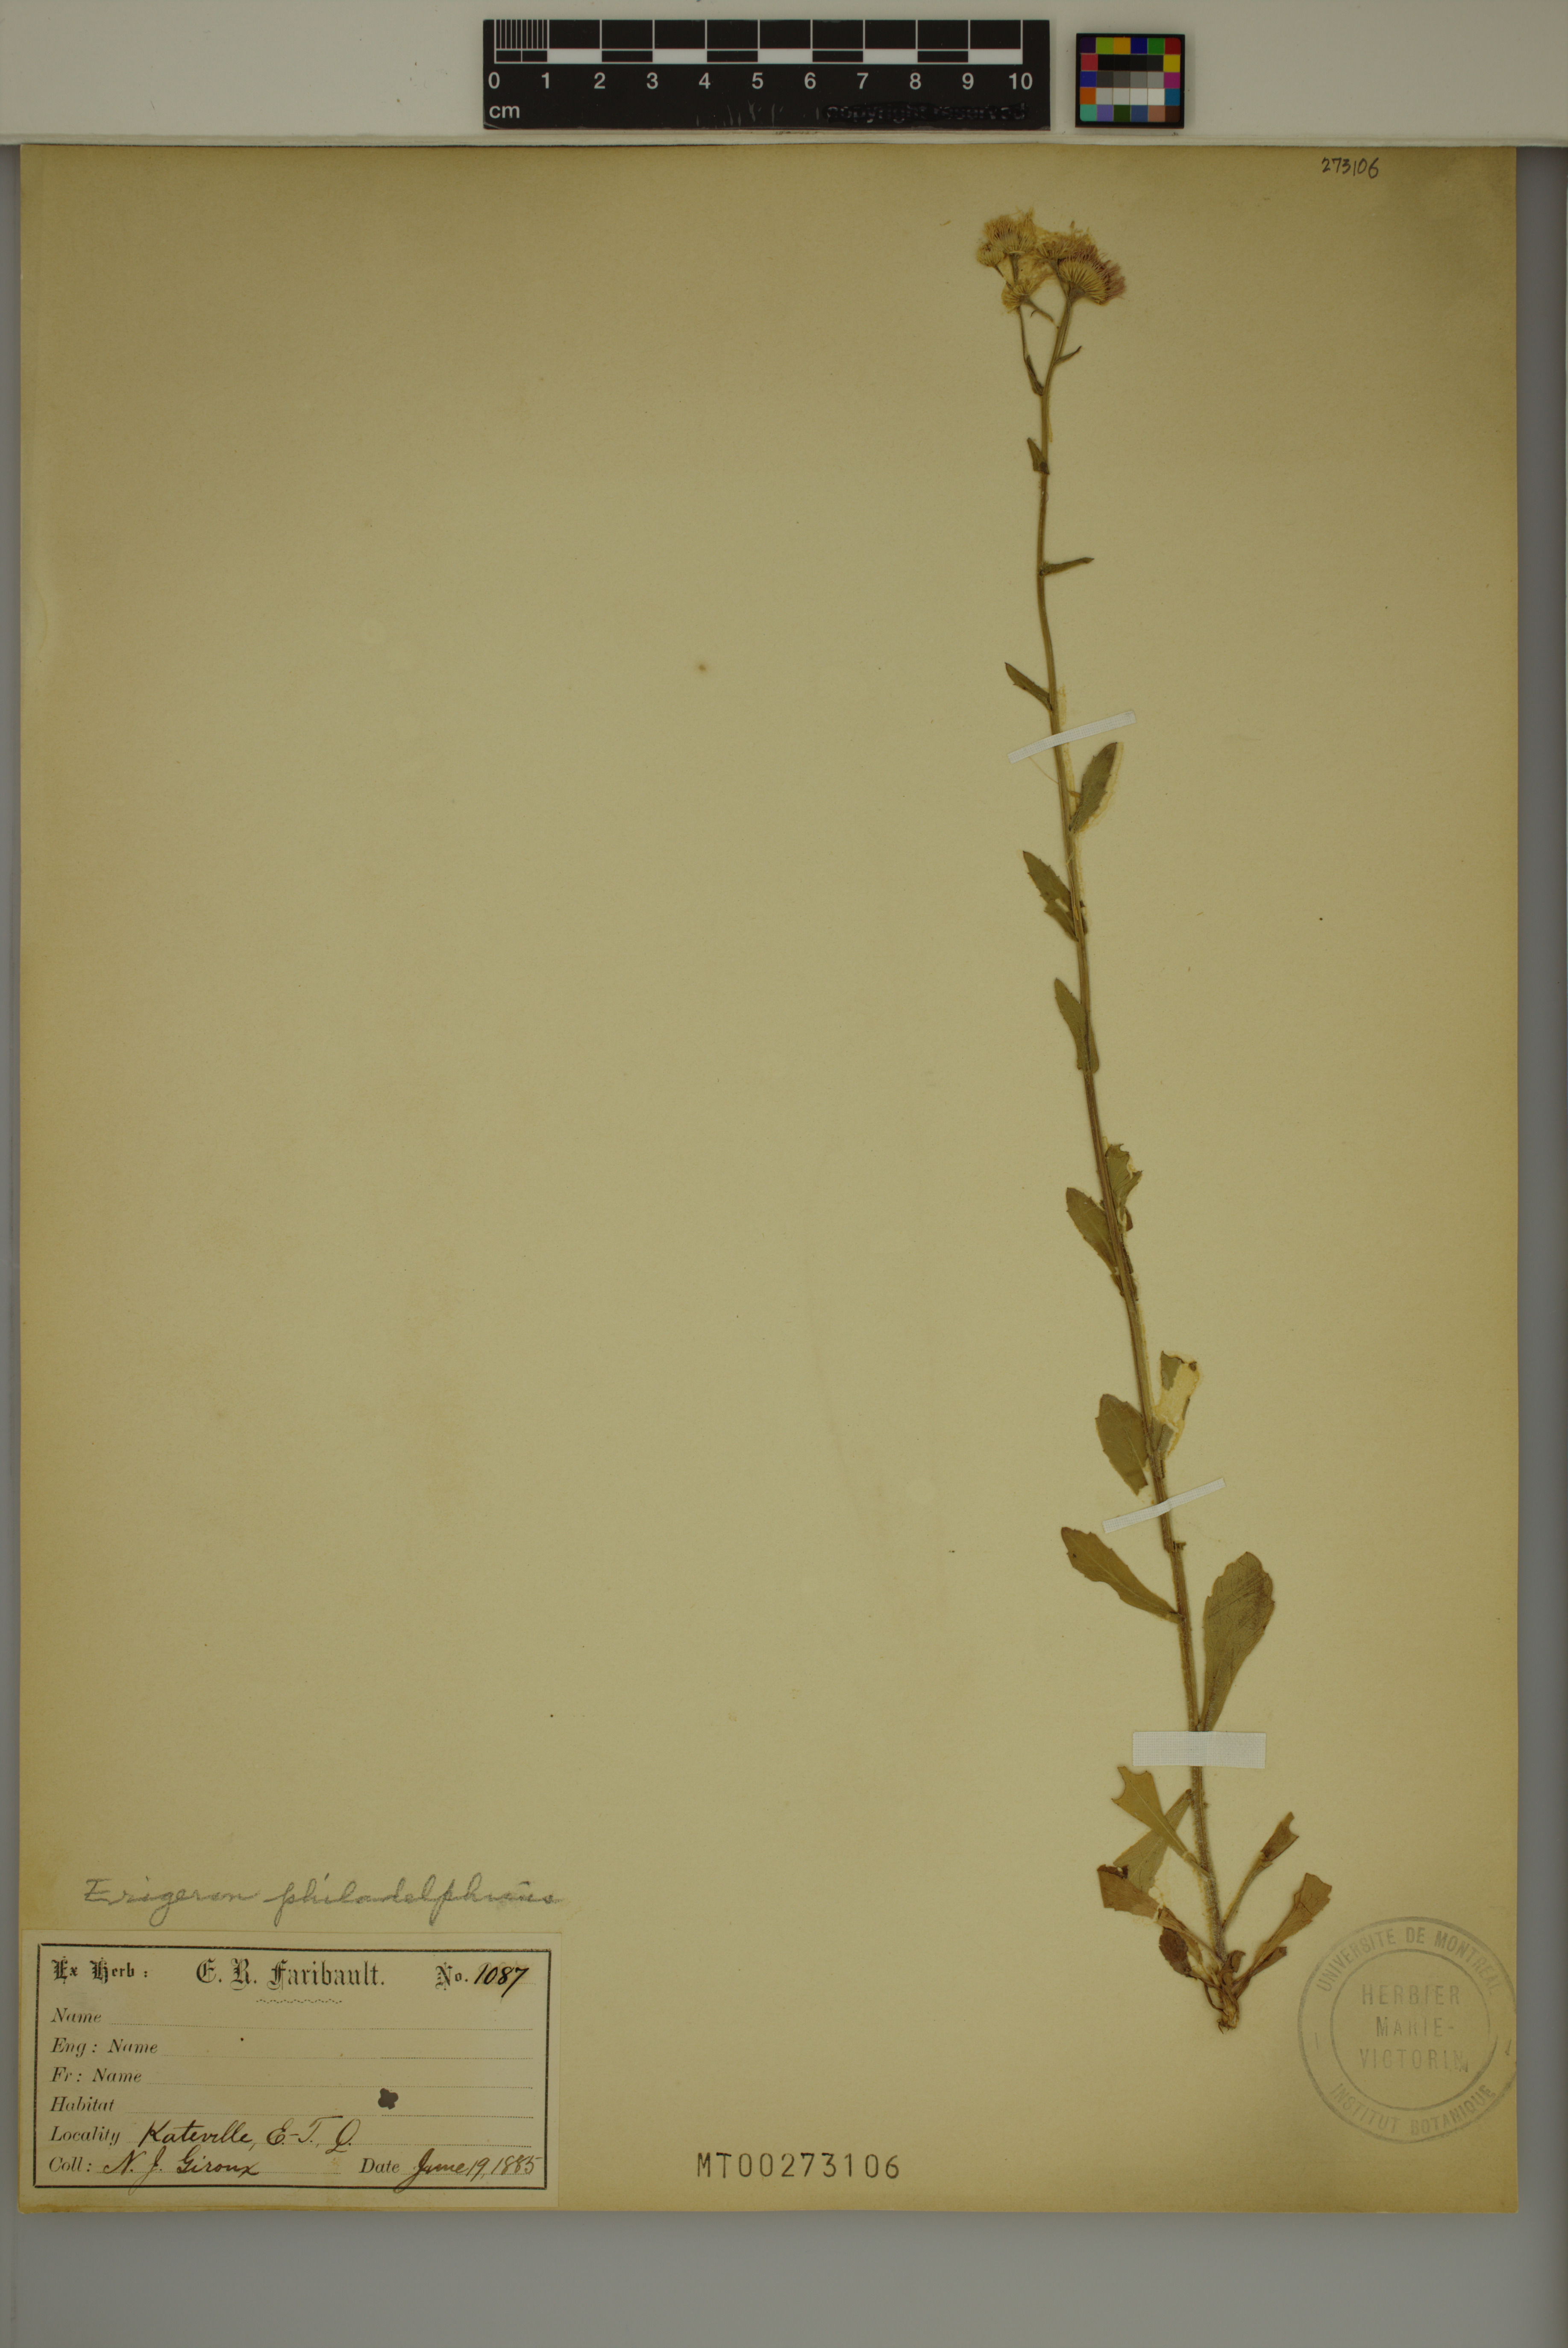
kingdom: Plantae
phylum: Tracheophyta
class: Magnoliopsida
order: Asterales
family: Asteraceae
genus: Erigeron
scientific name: Erigeron philadelphicus
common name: Robin's-plantain
